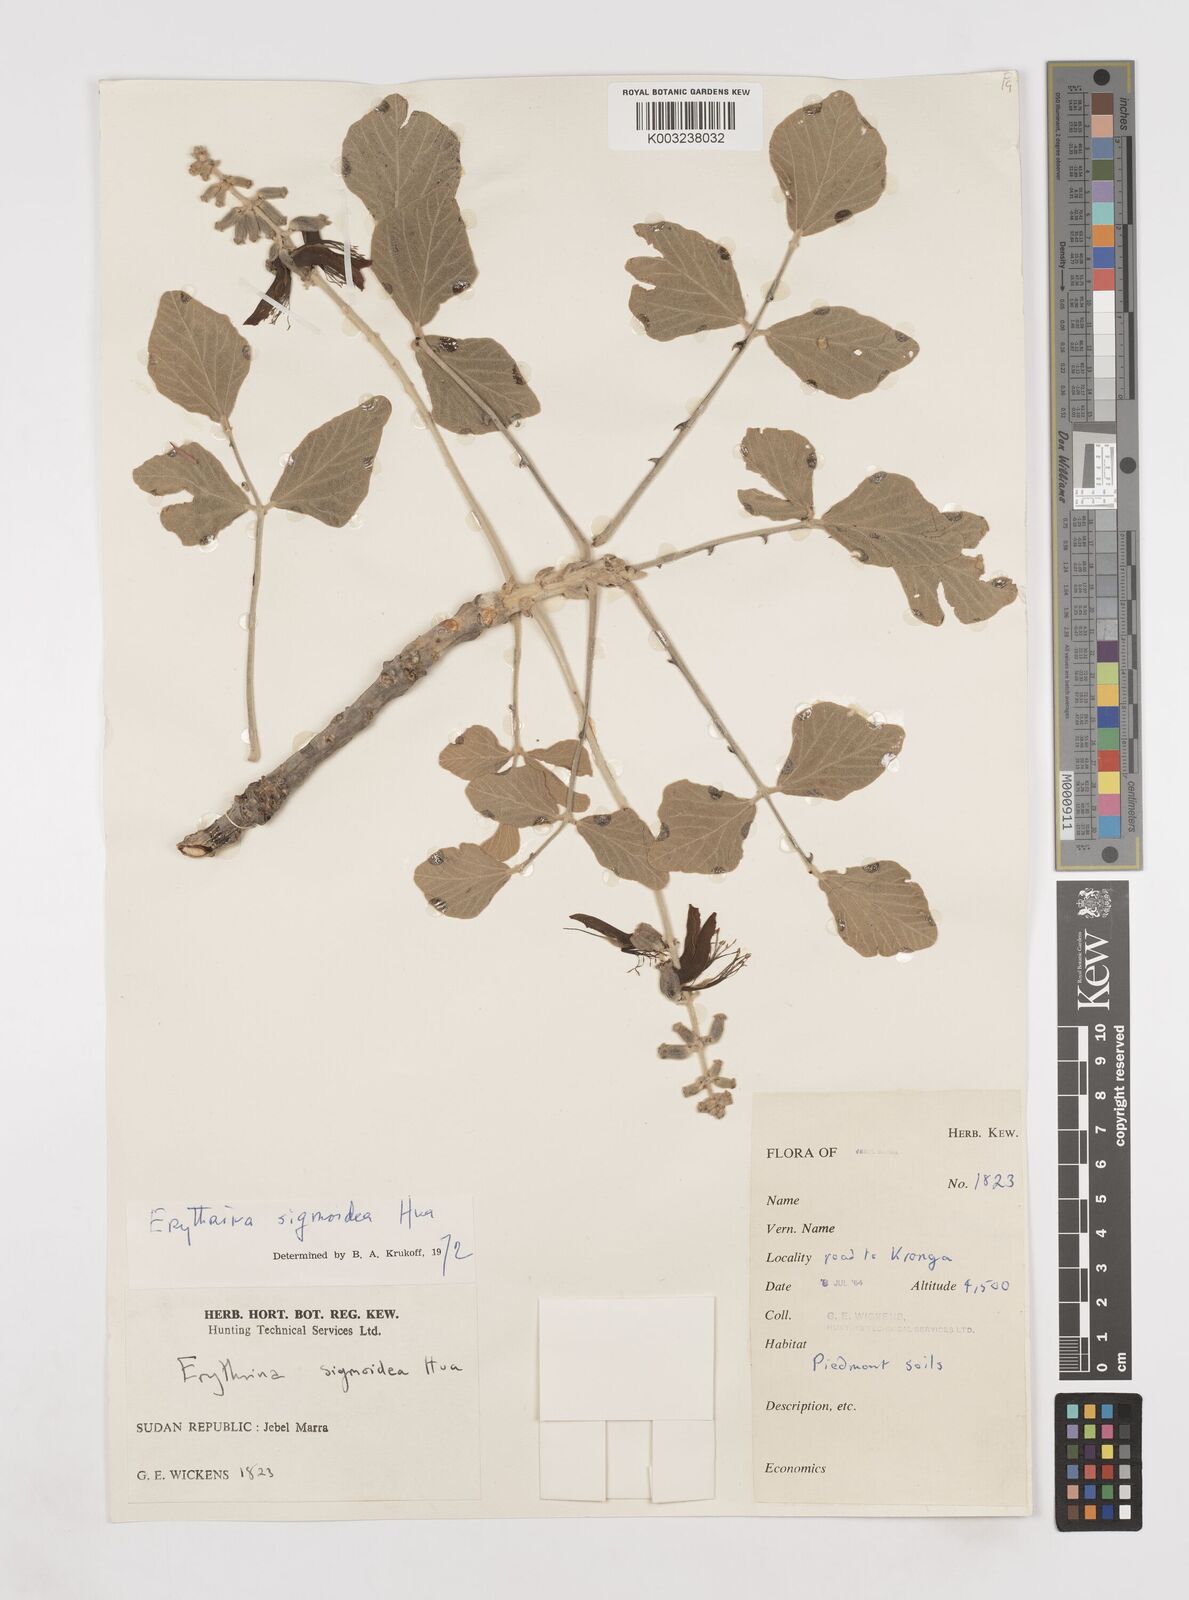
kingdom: Plantae
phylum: Tracheophyta
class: Magnoliopsida
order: Fabales
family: Fabaceae
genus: Erythrina
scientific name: Erythrina sigmoidea
